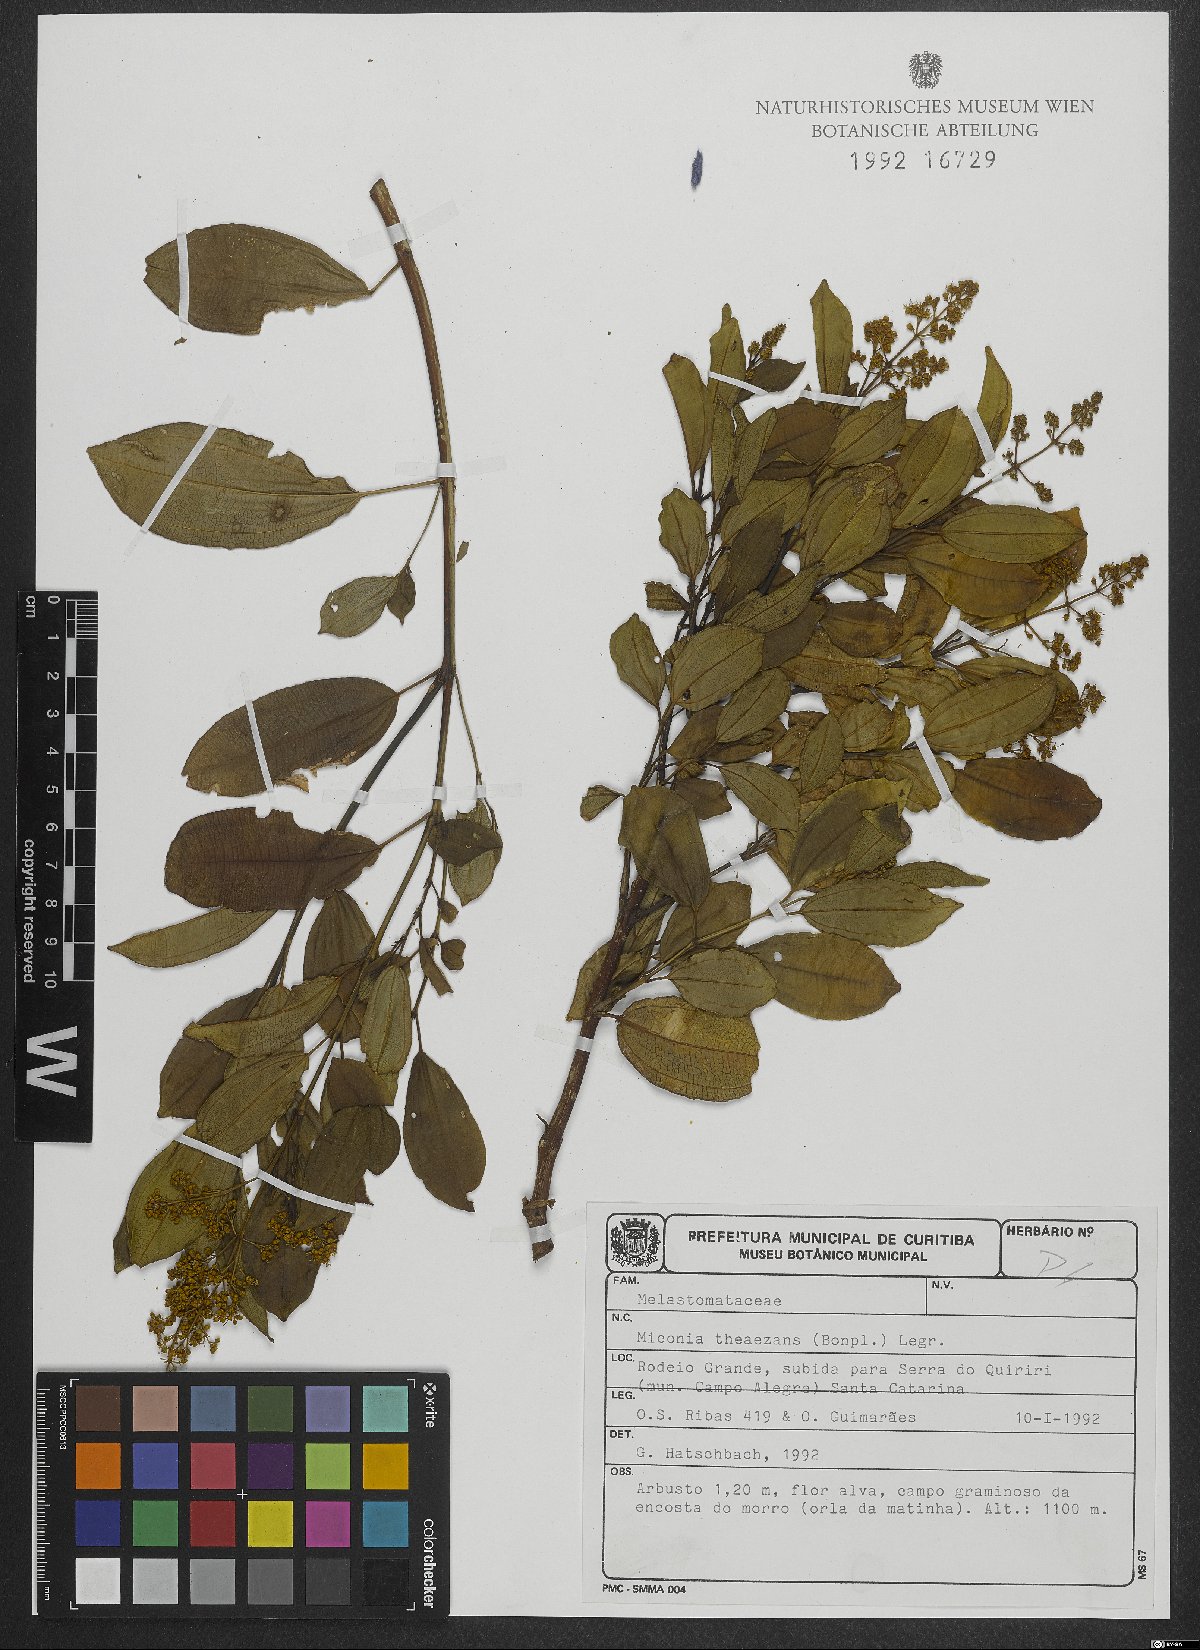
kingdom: Plantae
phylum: Tracheophyta
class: Magnoliopsida
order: Myrtales
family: Melastomataceae
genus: Miconia
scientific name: Miconia theizans
